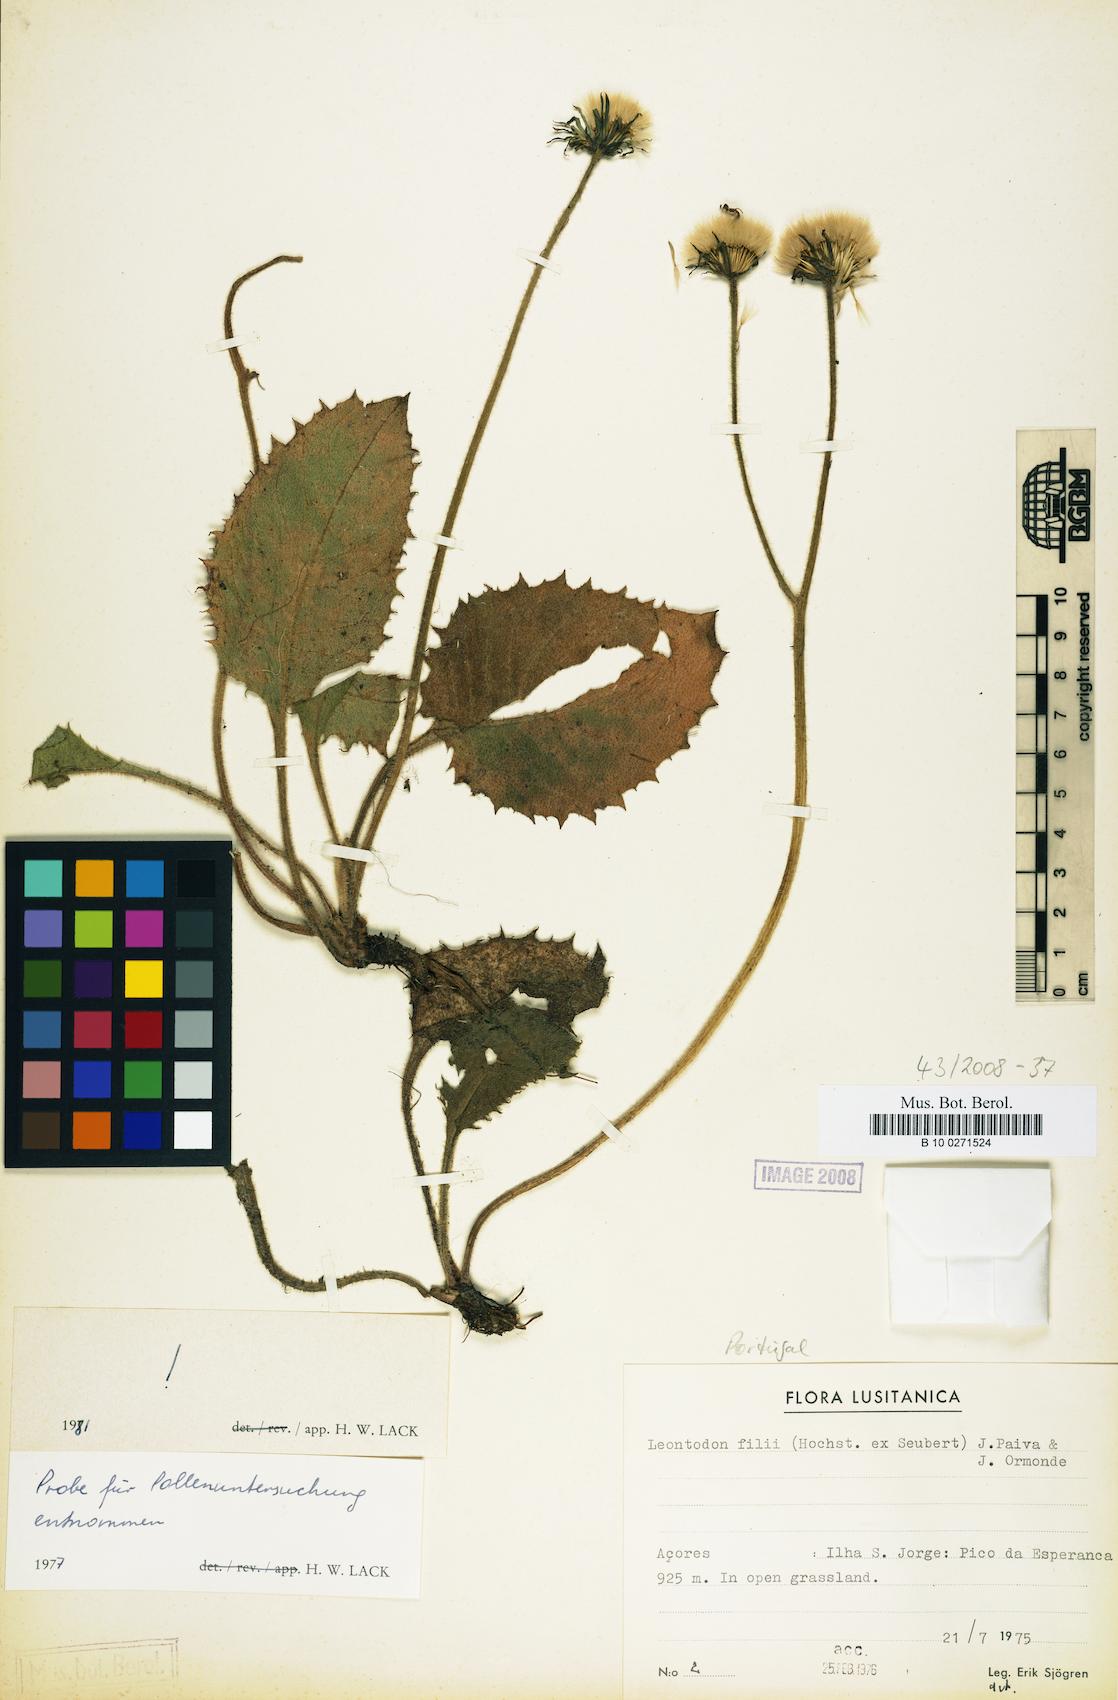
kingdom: Plantae
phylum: Tracheophyta
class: Magnoliopsida
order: Asterales
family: Asteraceae
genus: Leontodon
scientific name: Leontodon filii
